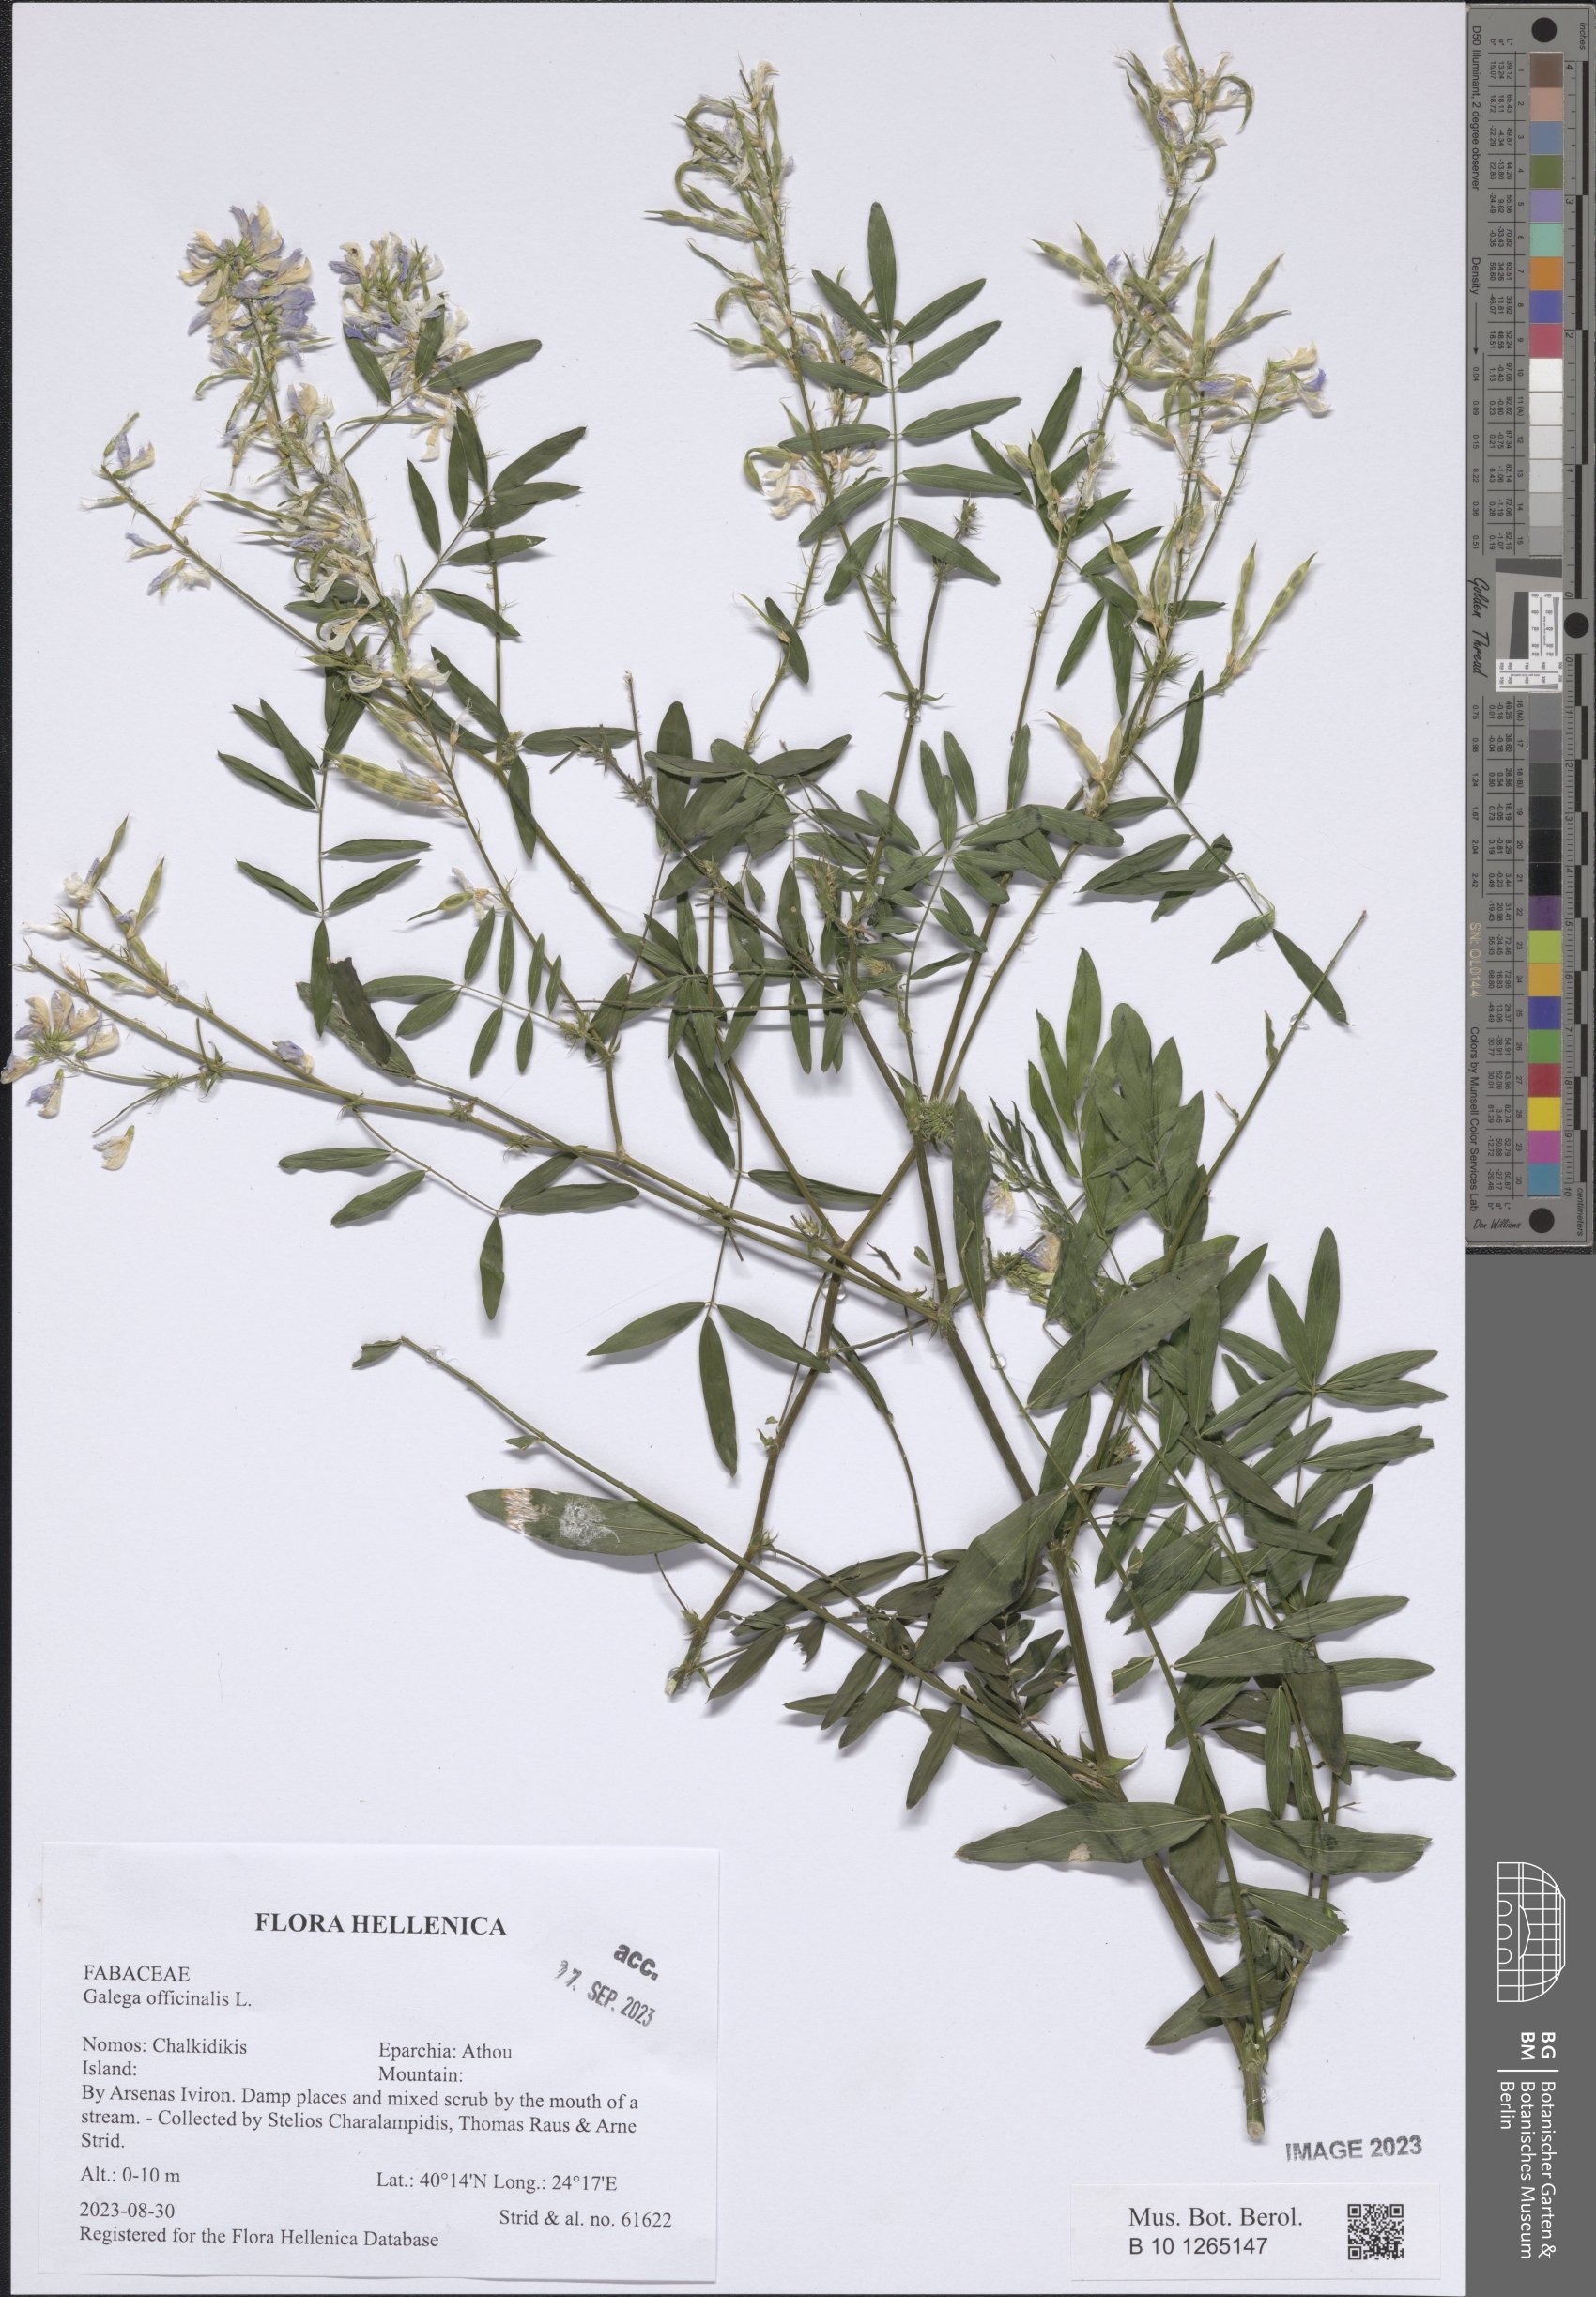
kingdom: Plantae
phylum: Tracheophyta
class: Magnoliopsida
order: Fabales
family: Fabaceae
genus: Galega
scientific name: Galega officinalis
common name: Goat's-rue
